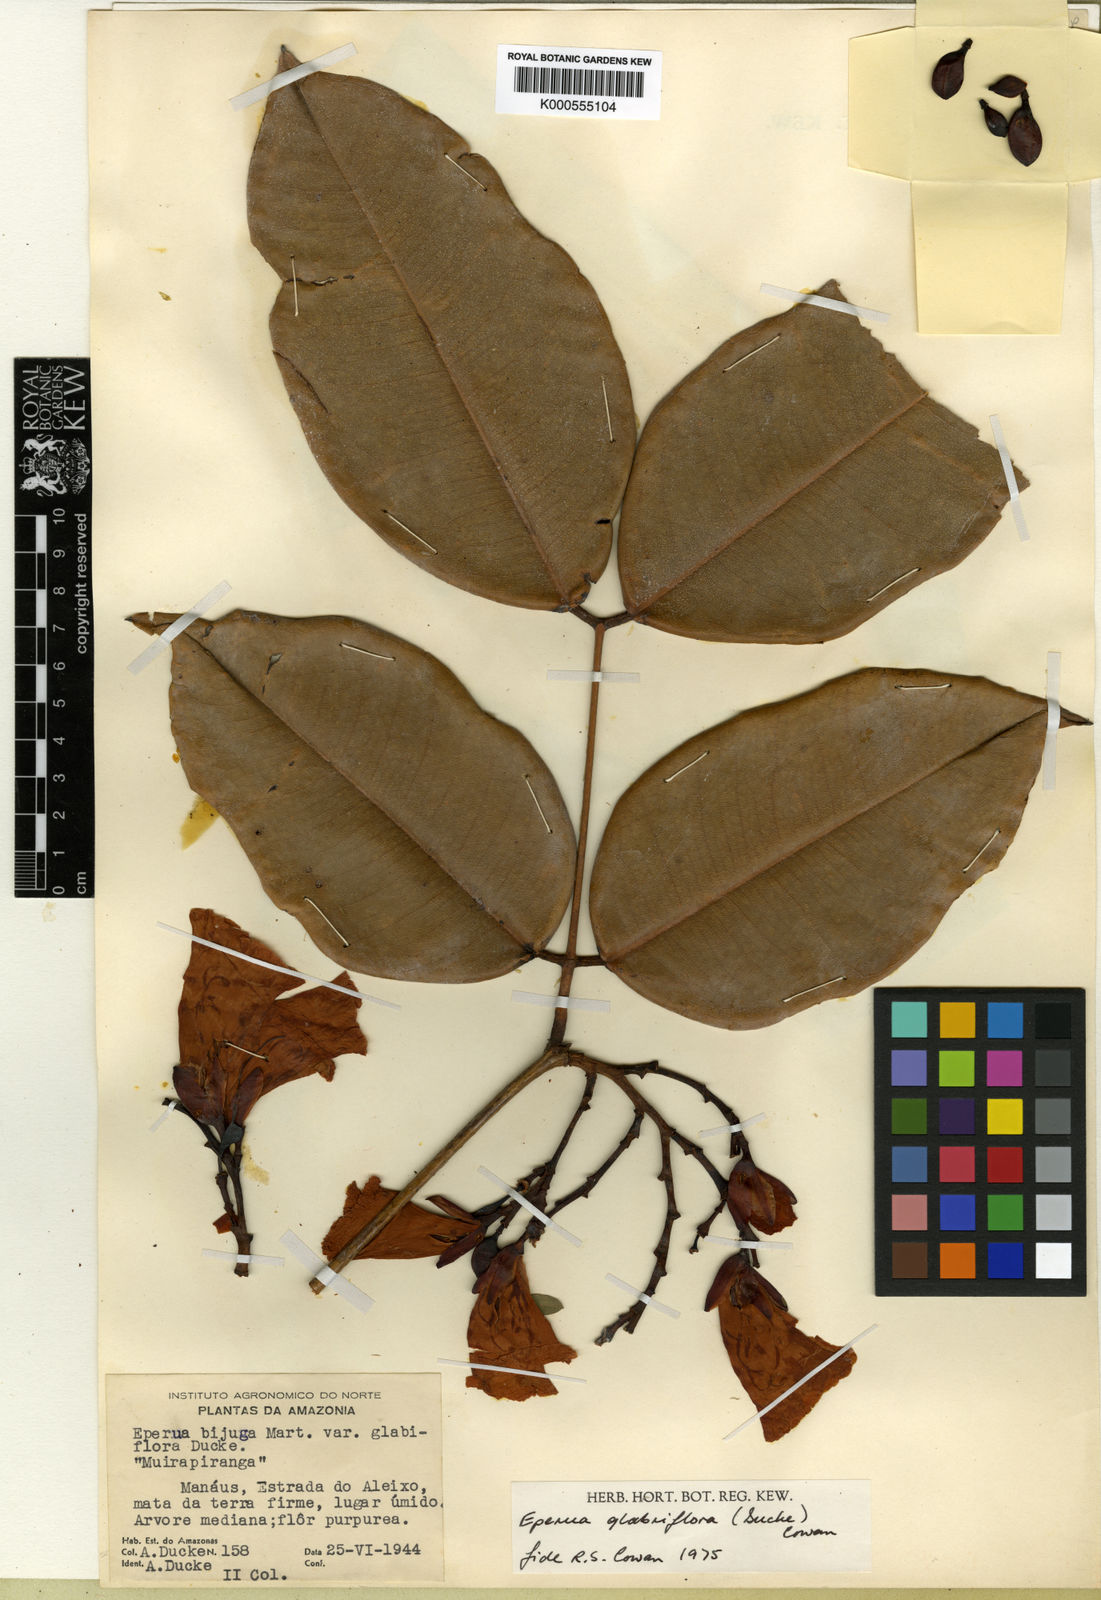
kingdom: Plantae
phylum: Tracheophyta
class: Magnoliopsida
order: Fabales
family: Fabaceae
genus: Eperua
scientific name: Eperua glabriflora
